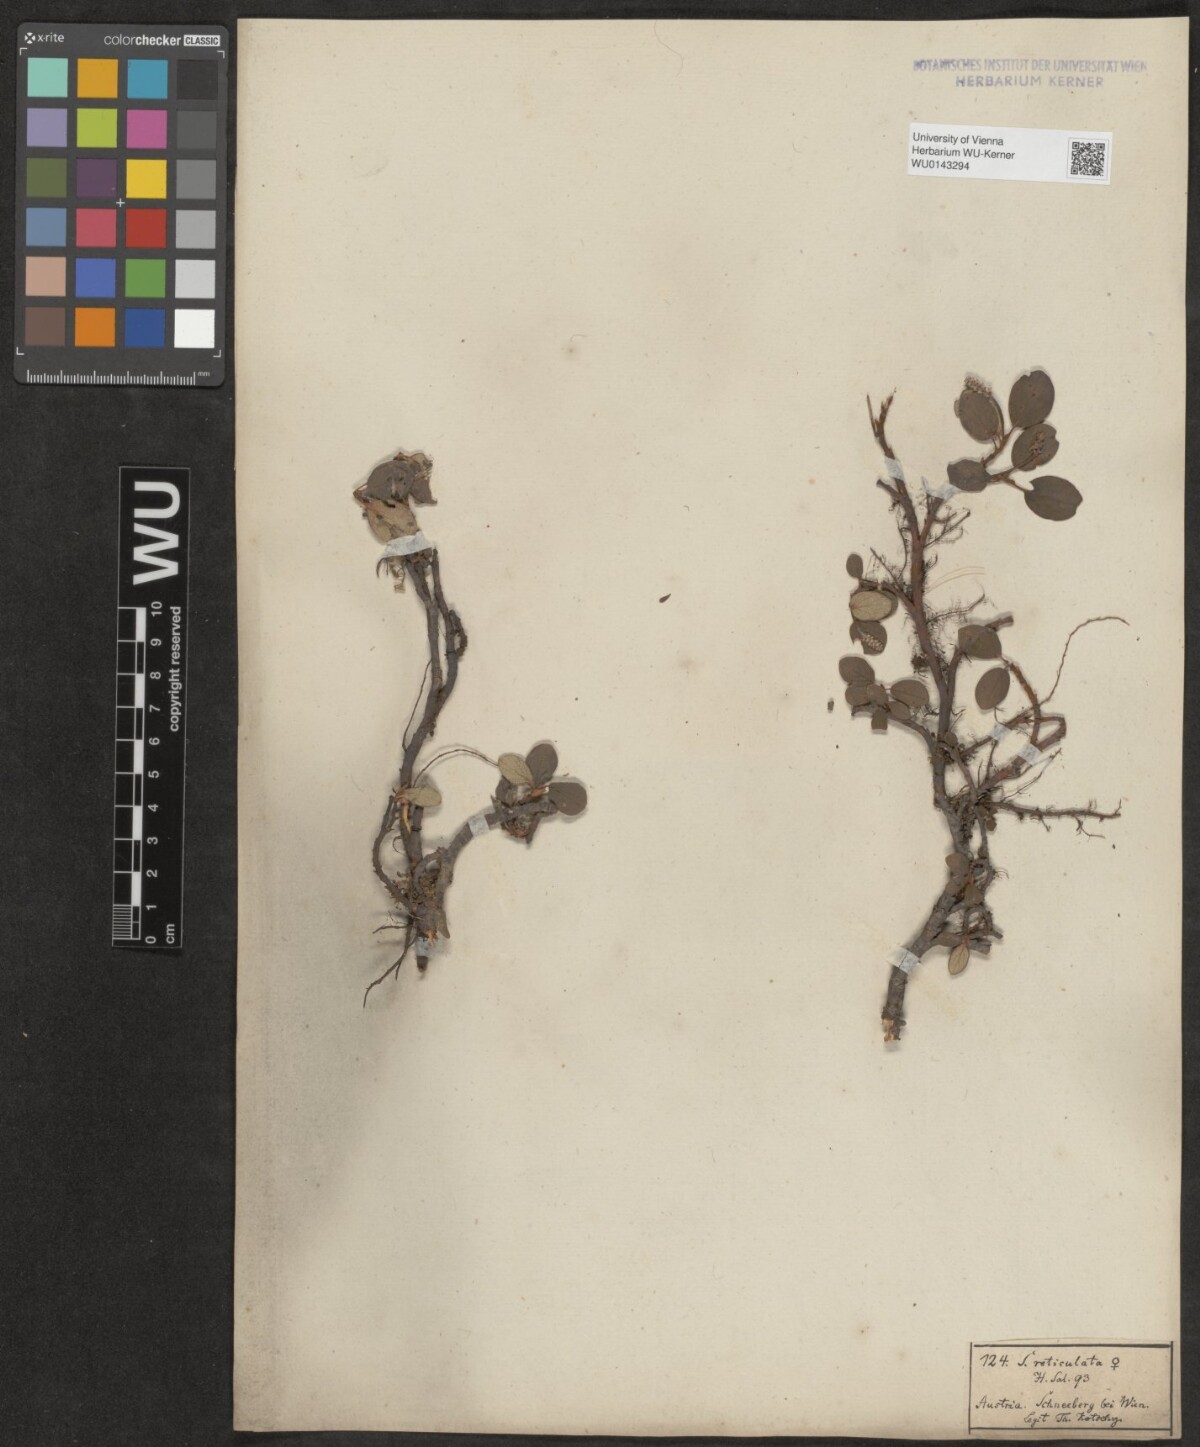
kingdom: Plantae
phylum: Tracheophyta
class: Magnoliopsida
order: Malpighiales
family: Salicaceae
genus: Salix
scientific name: Salix reticulata
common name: Net-leaved willow
